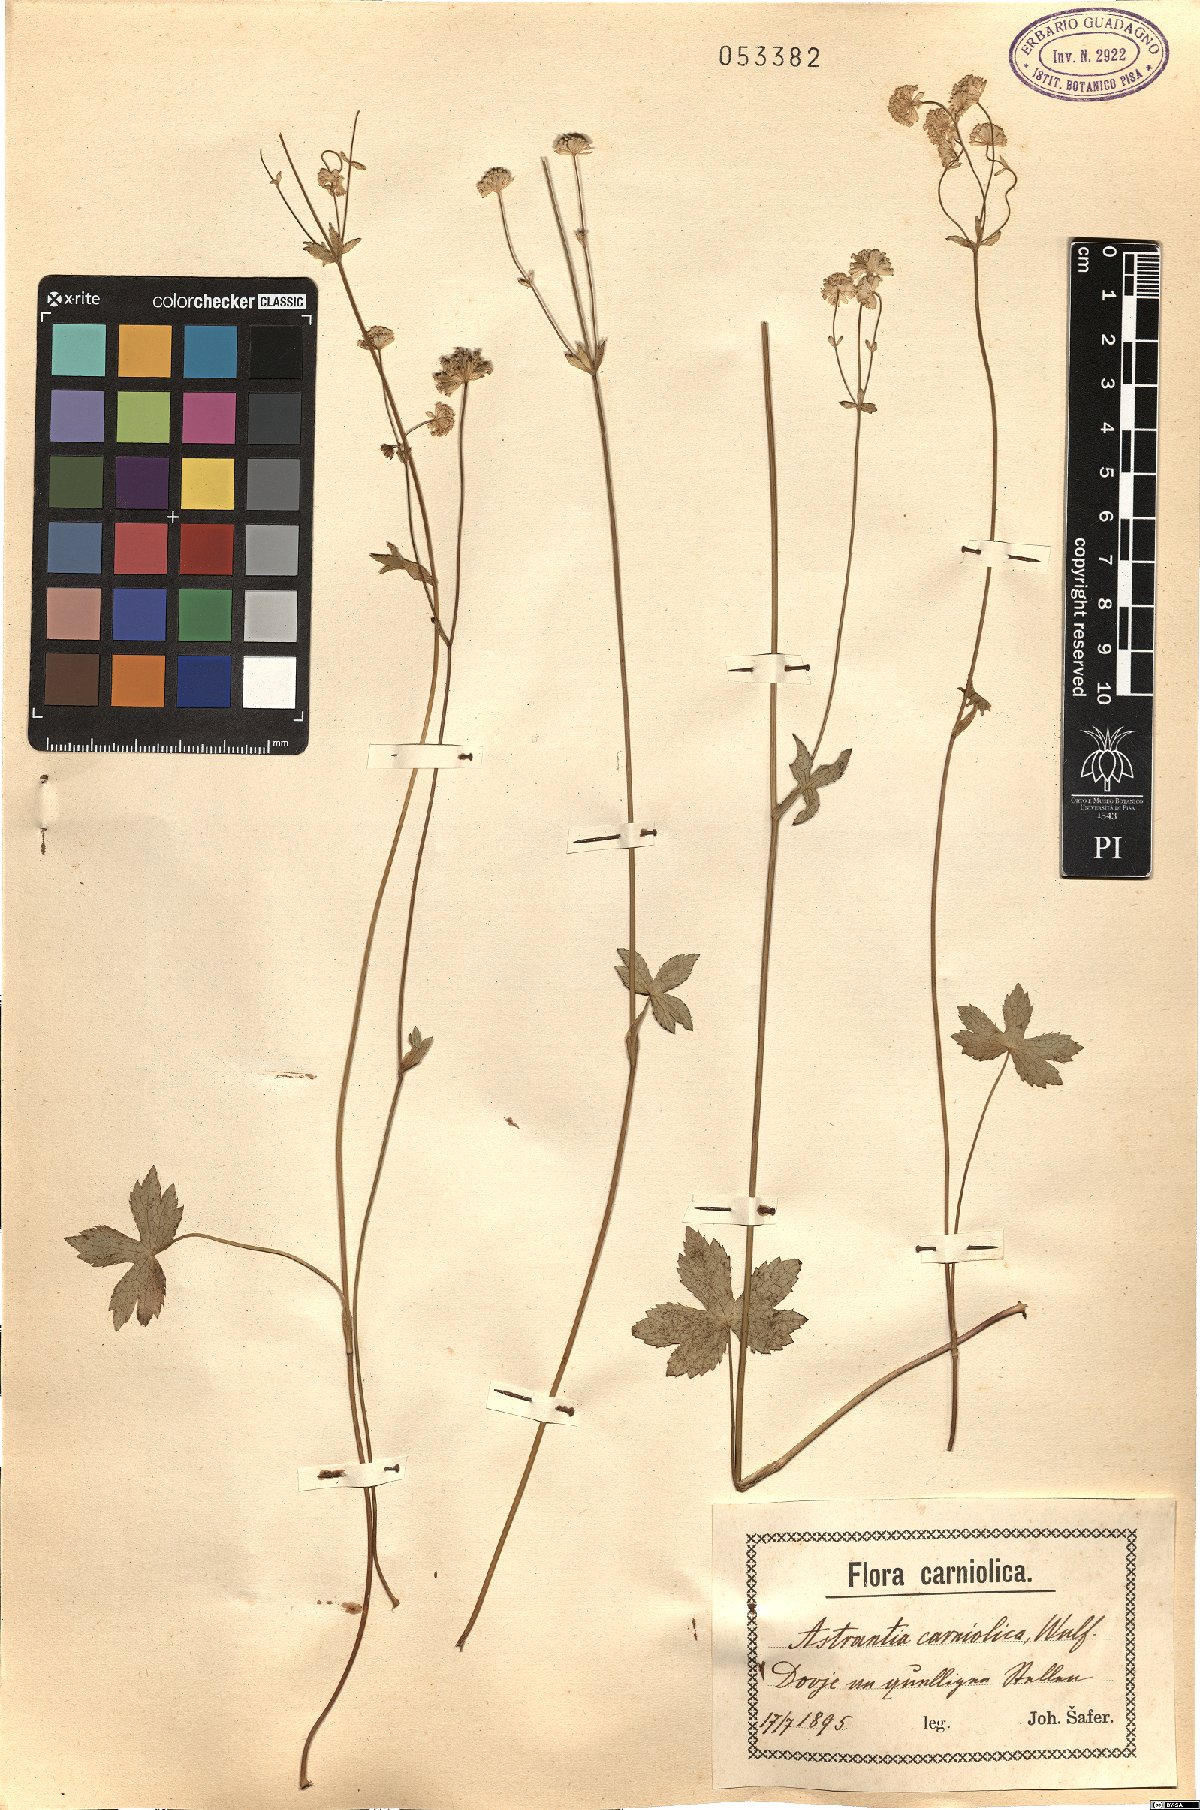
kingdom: Plantae
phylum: Tracheophyta
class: Magnoliopsida
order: Apiales
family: Apiaceae
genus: Astrantia
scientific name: Astrantia carniolica
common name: Carnic masterwort
